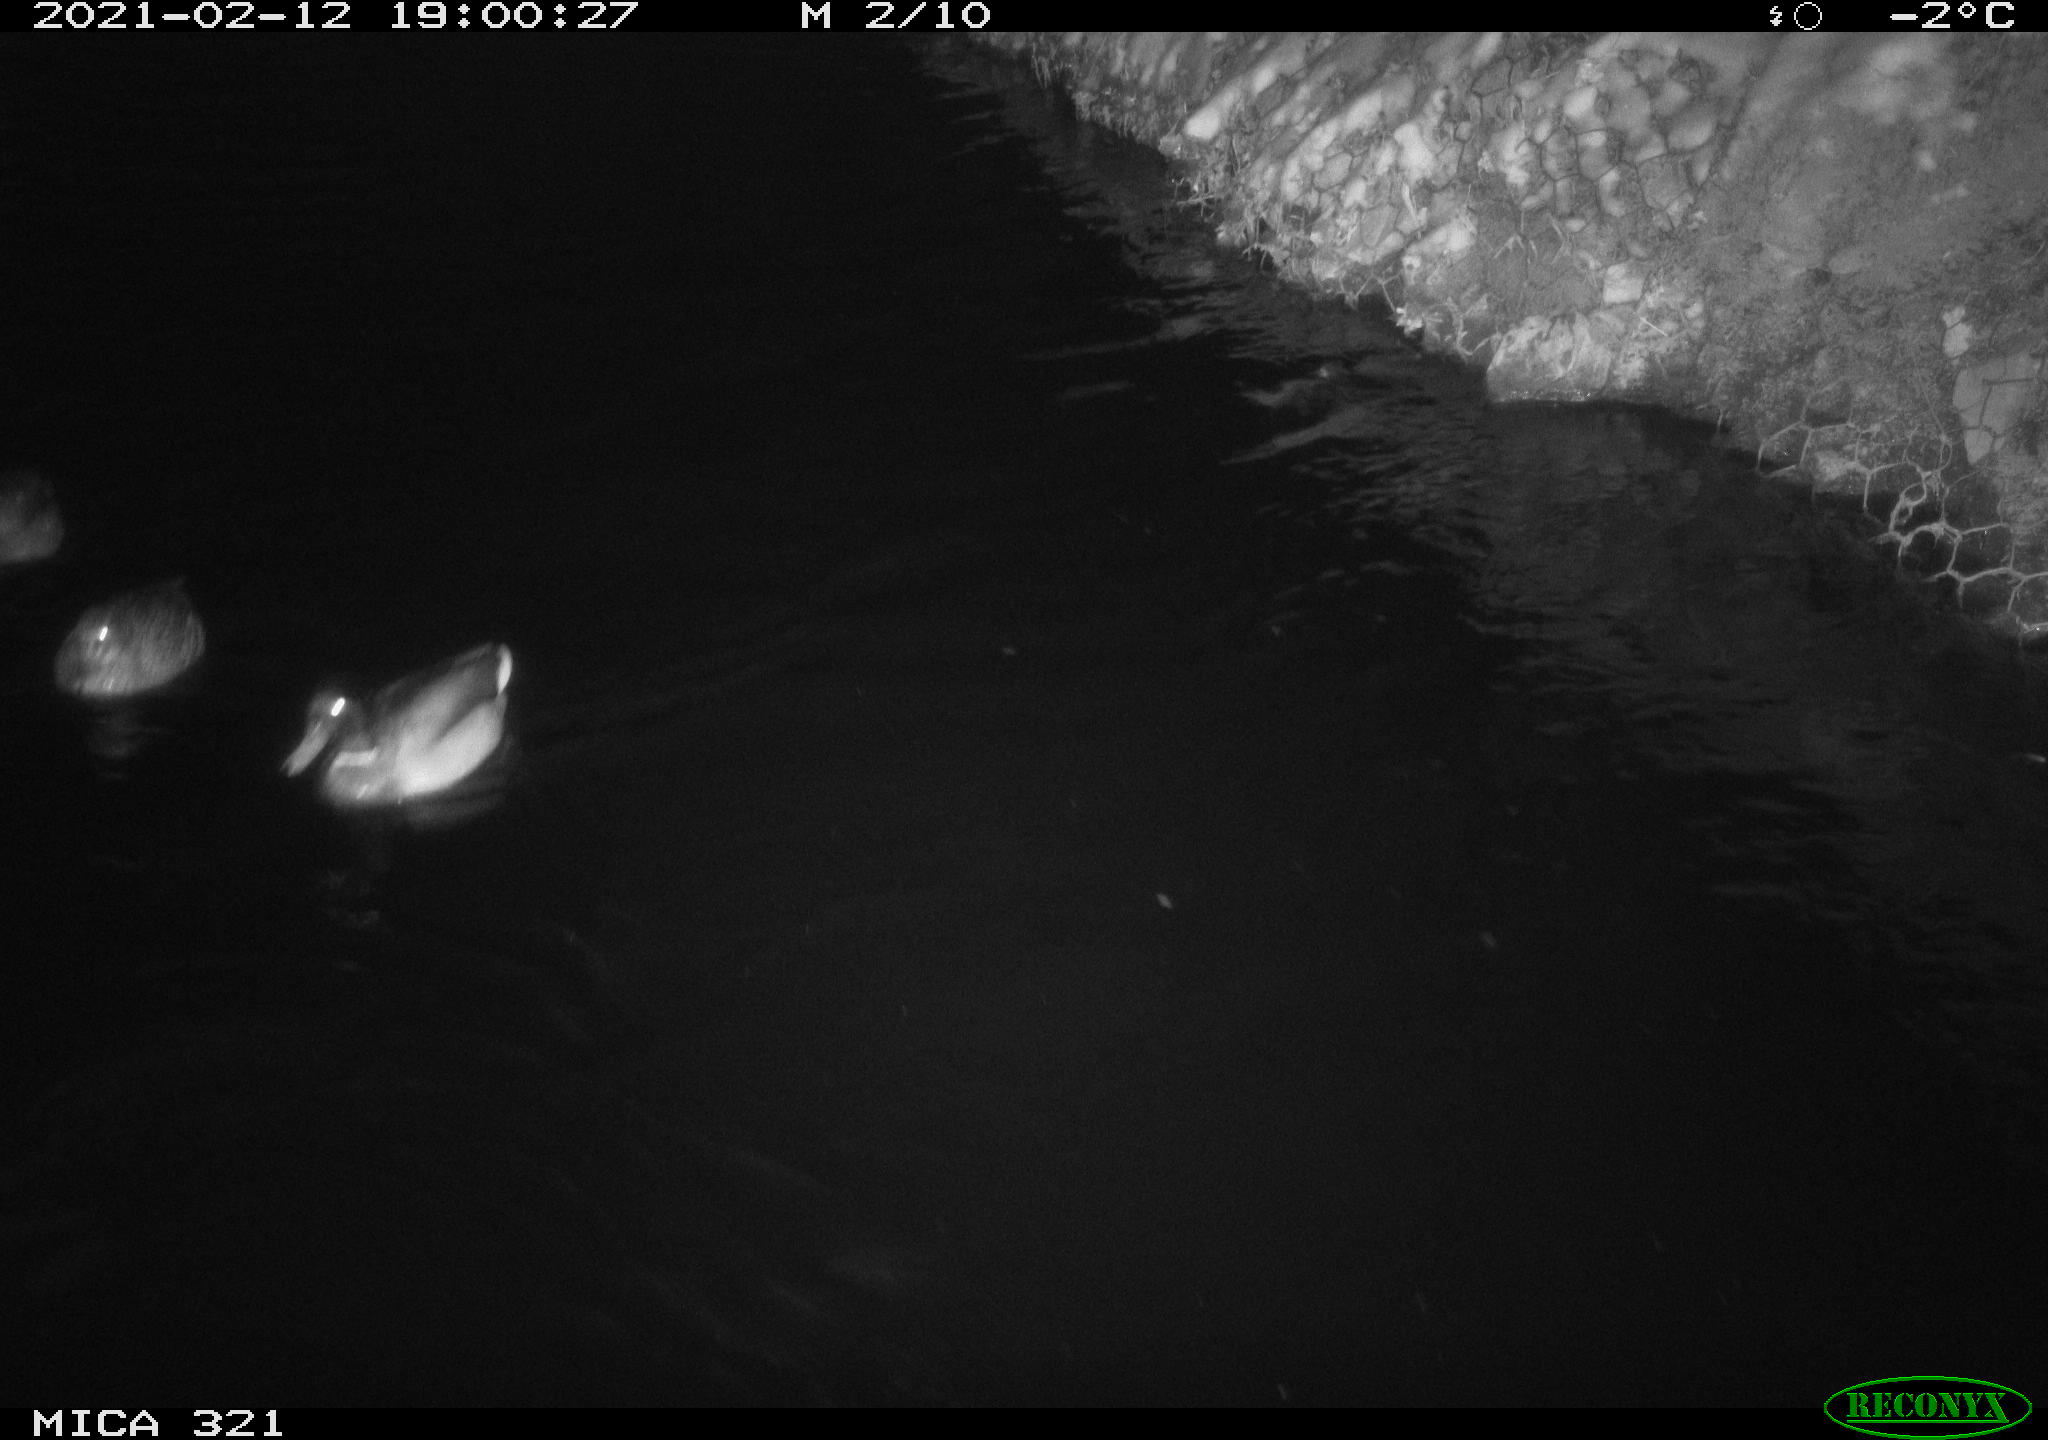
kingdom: Animalia
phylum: Chordata
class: Aves
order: Anseriformes
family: Anatidae
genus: Anas
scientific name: Anas platyrhynchos
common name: Mallard
